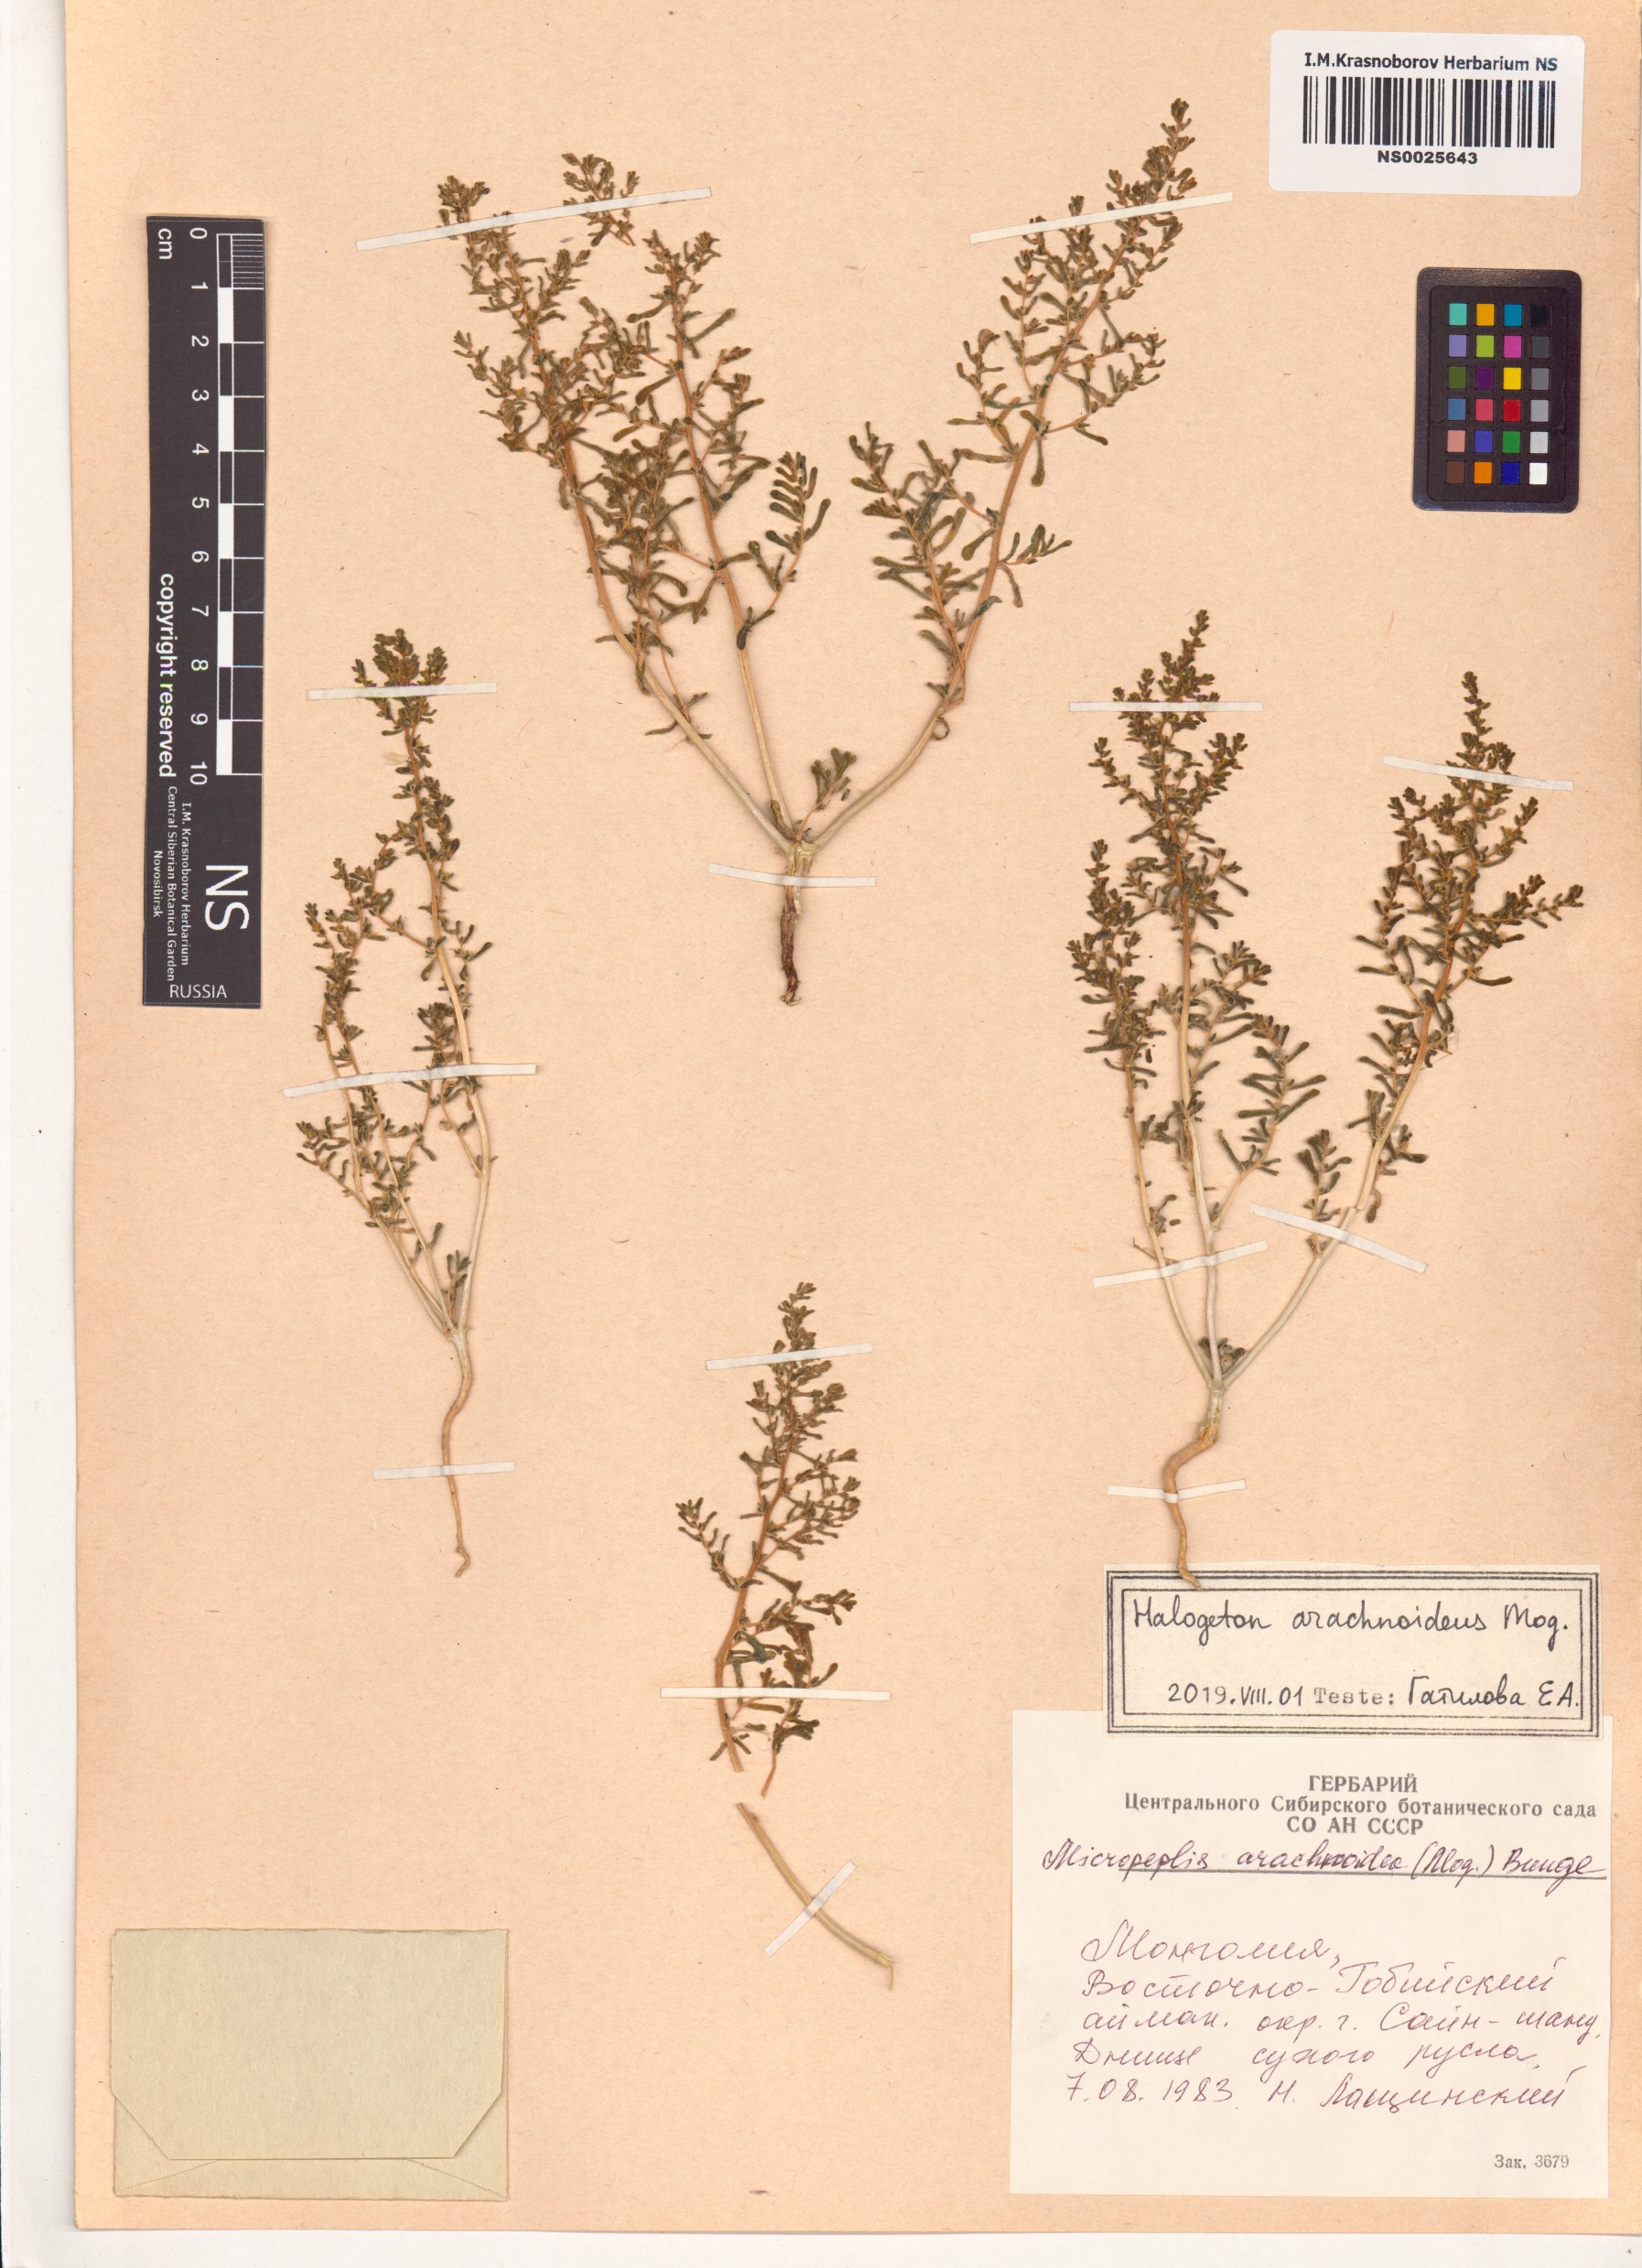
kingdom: Plantae
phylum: Tracheophyta
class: Magnoliopsida
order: Caryophyllales
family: Amaranthaceae
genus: Halogeton
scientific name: Halogeton arachnoideus
